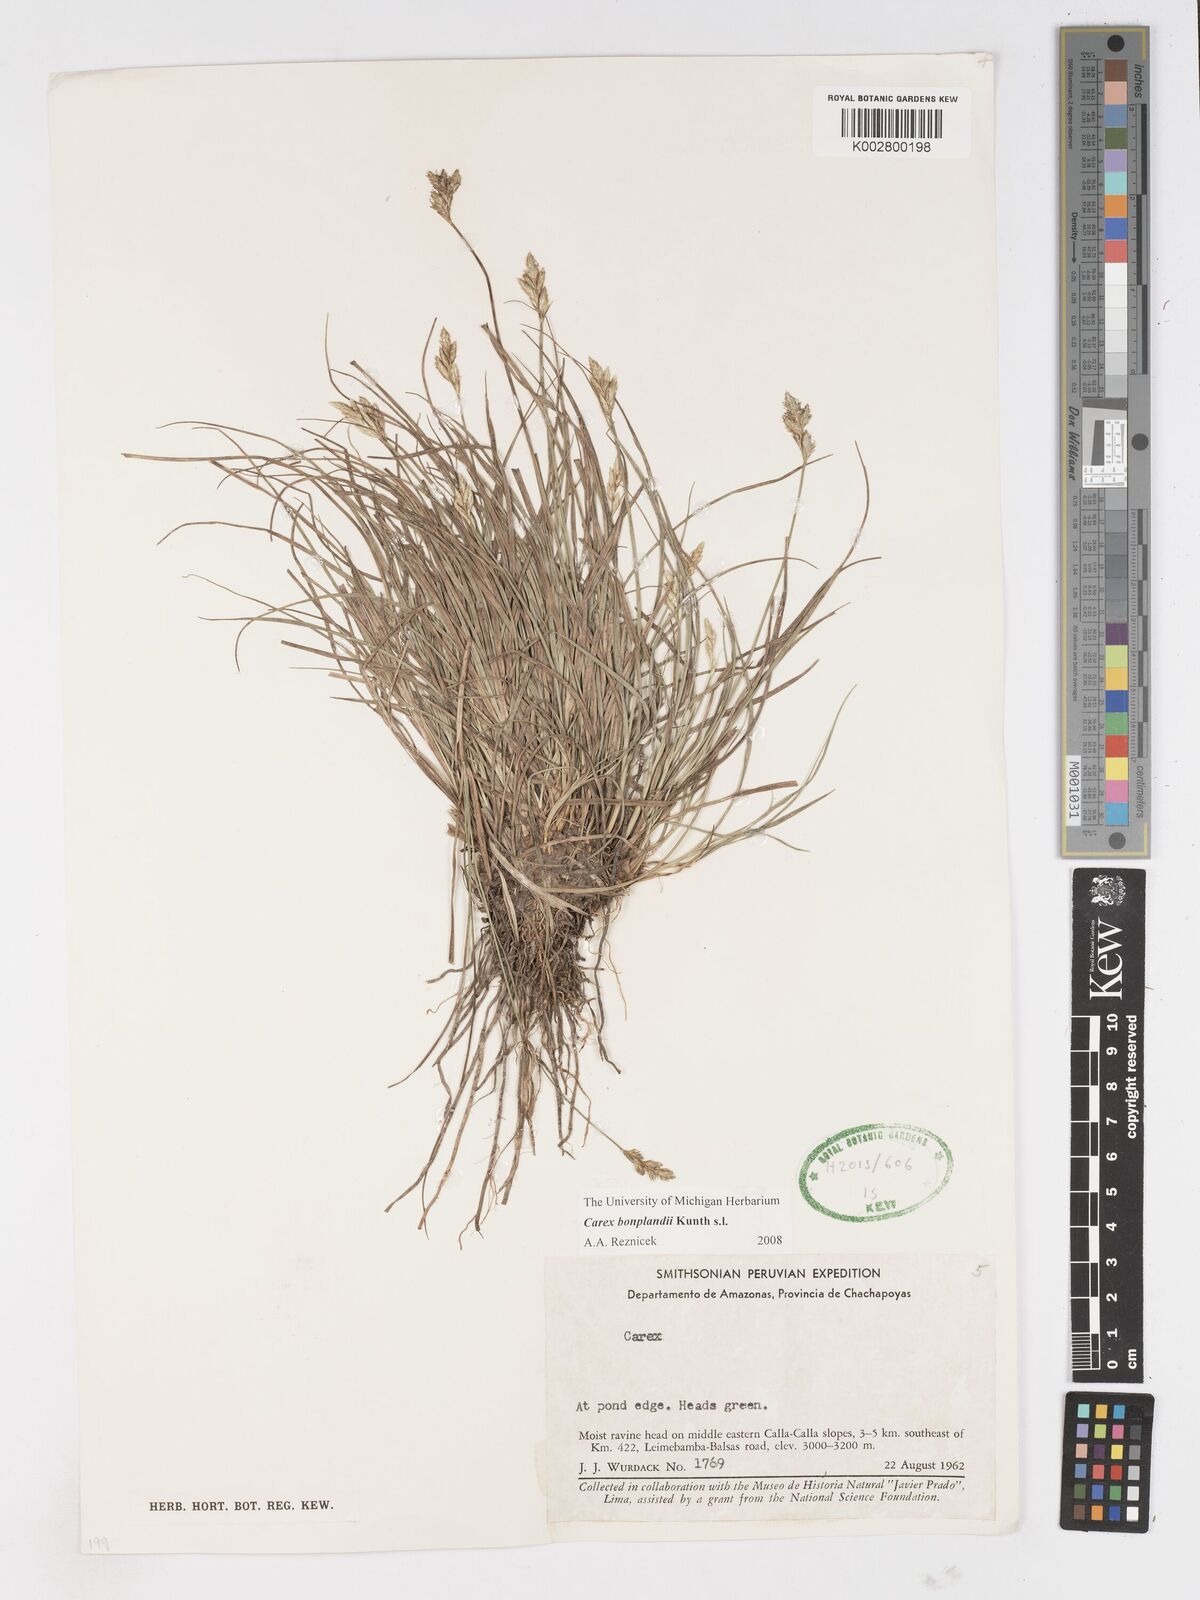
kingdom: Plantae
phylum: Tracheophyta
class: Liliopsida
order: Poales
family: Cyperaceae
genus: Carex
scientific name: Carex bonplandii
